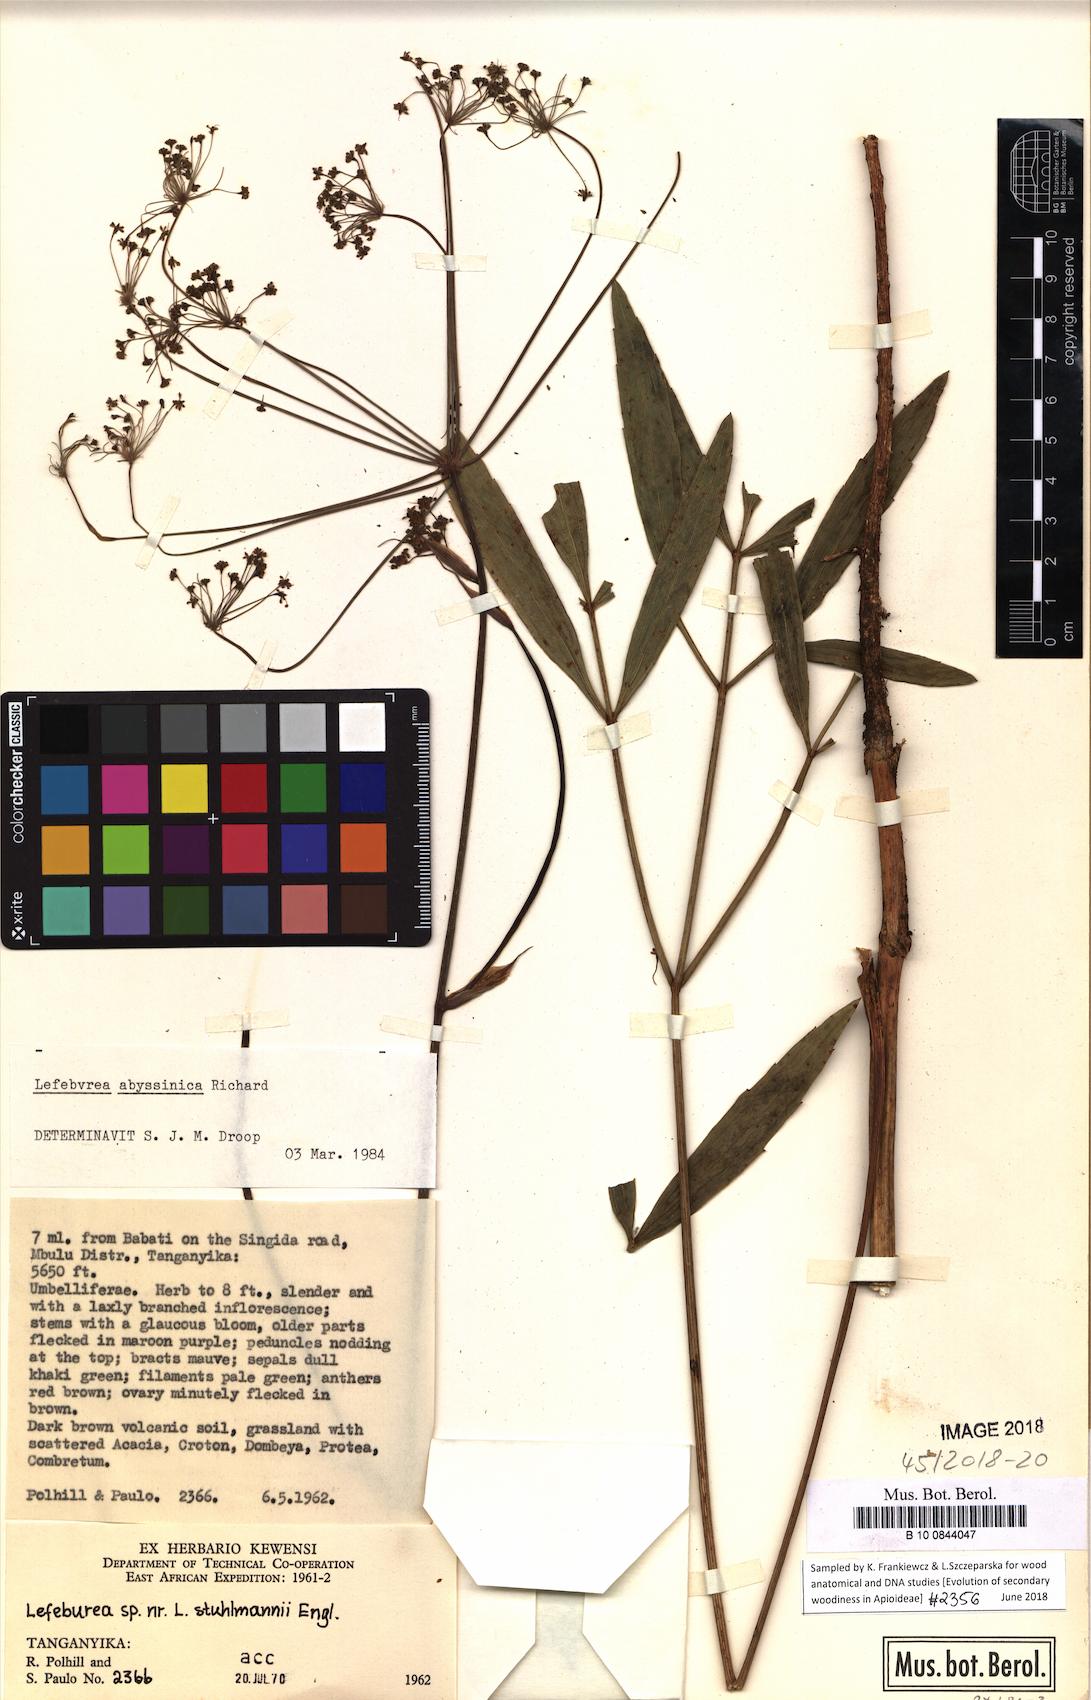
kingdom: Plantae
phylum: Tracheophyta
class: Magnoliopsida
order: Apiales
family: Apiaceae
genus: Lefebvrea
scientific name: Lefebvrea abyssinica
